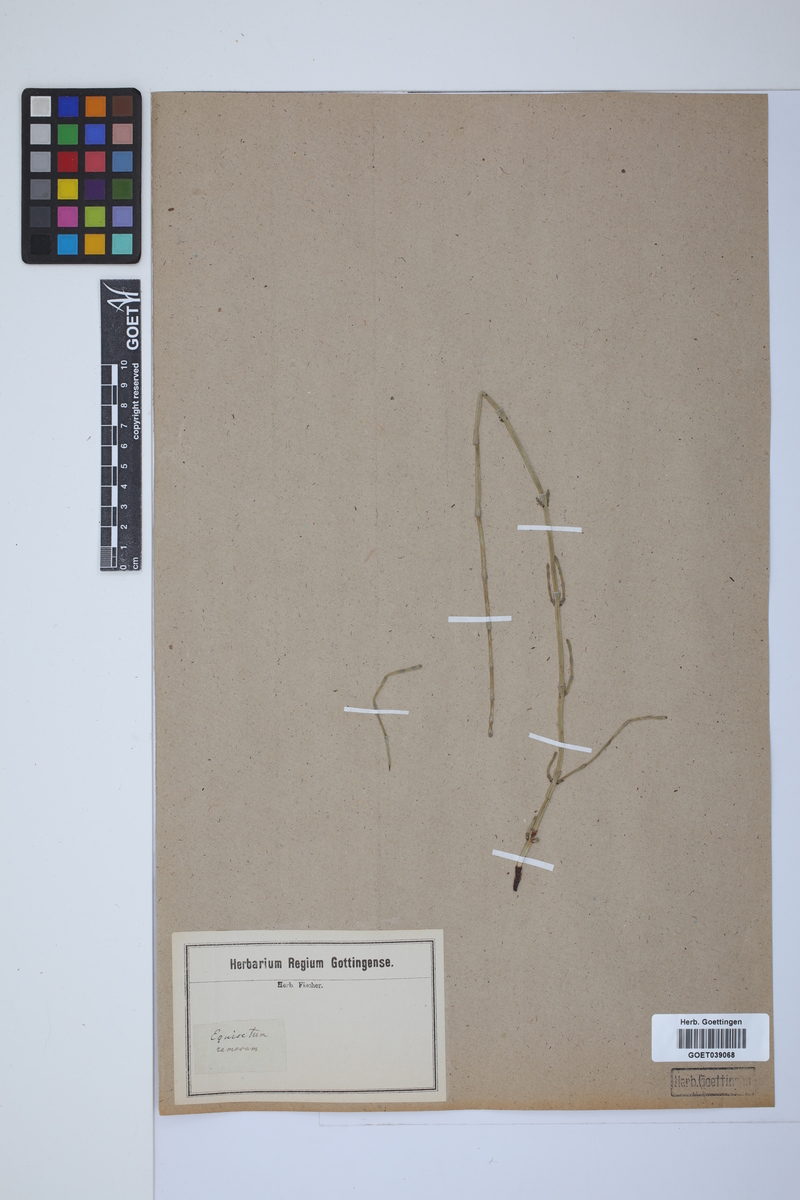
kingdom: Plantae
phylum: Tracheophyta
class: Polypodiopsida
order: Equisetales
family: Equisetaceae
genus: Equisetum
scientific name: Equisetum giganteum
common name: Giant horsetail
